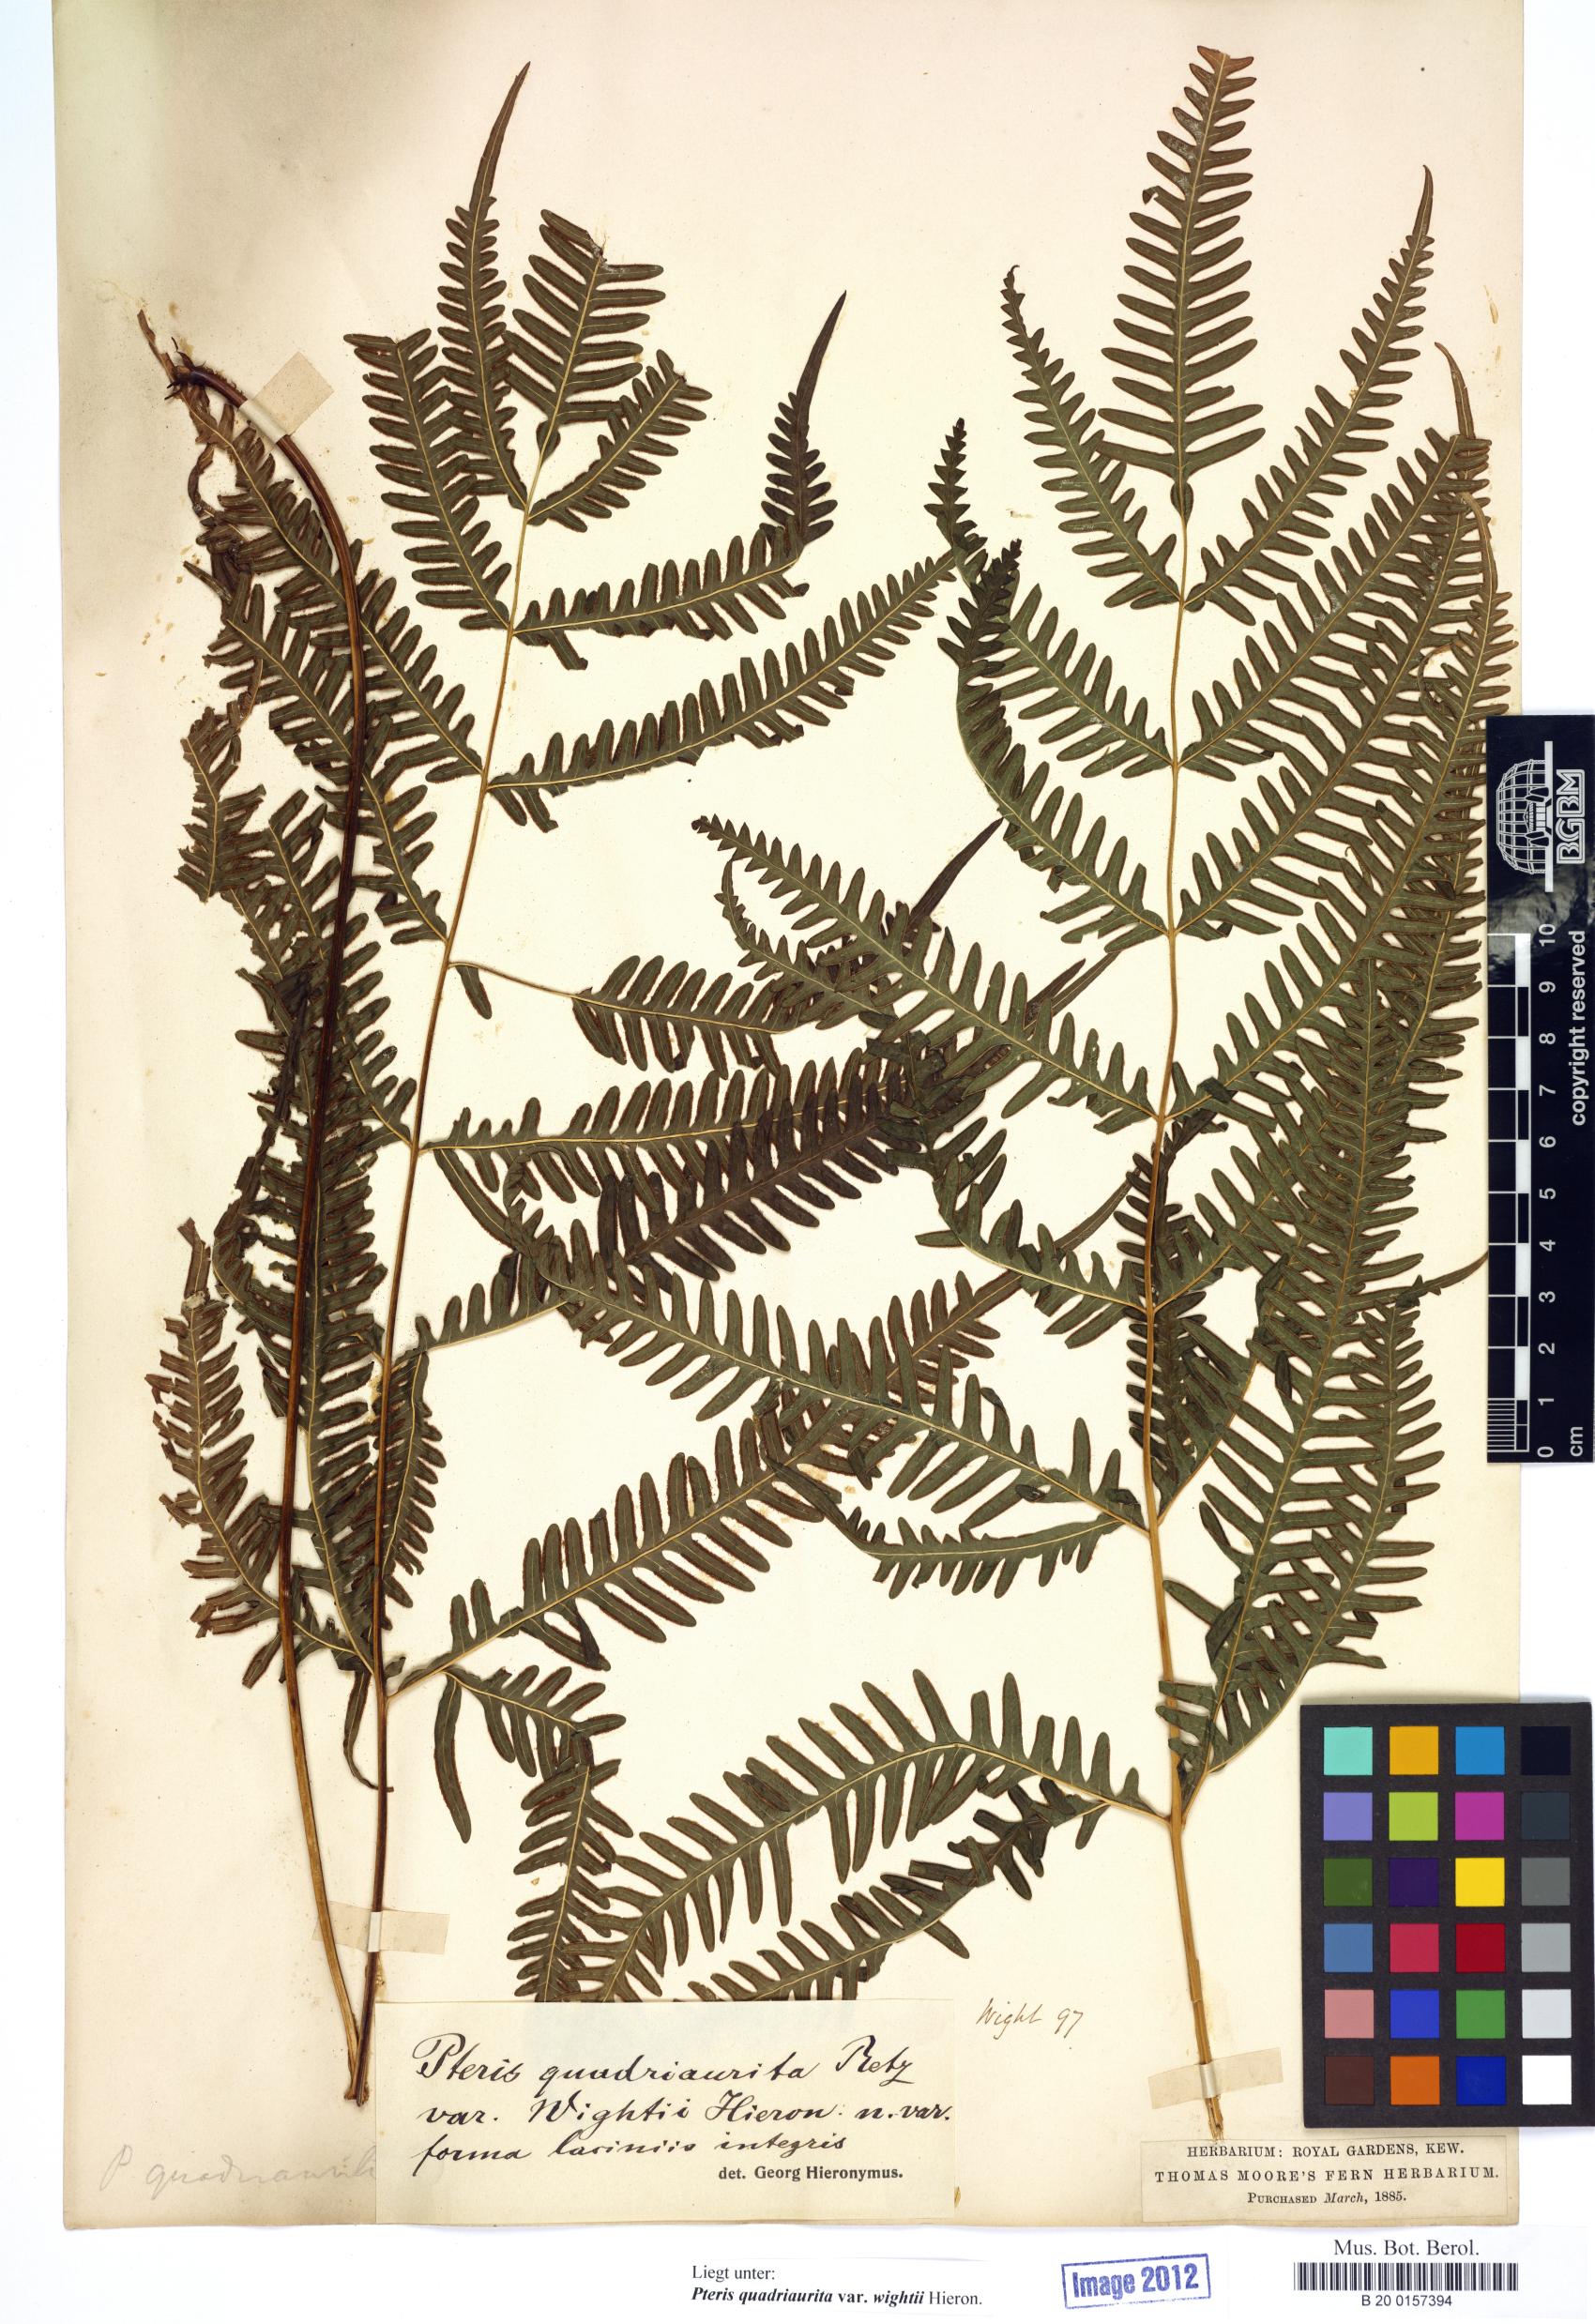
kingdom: Plantae
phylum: Tracheophyta
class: Polypodiopsida
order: Polypodiales
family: Pteridaceae
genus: Pteris
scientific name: Pteris quadriaurita
